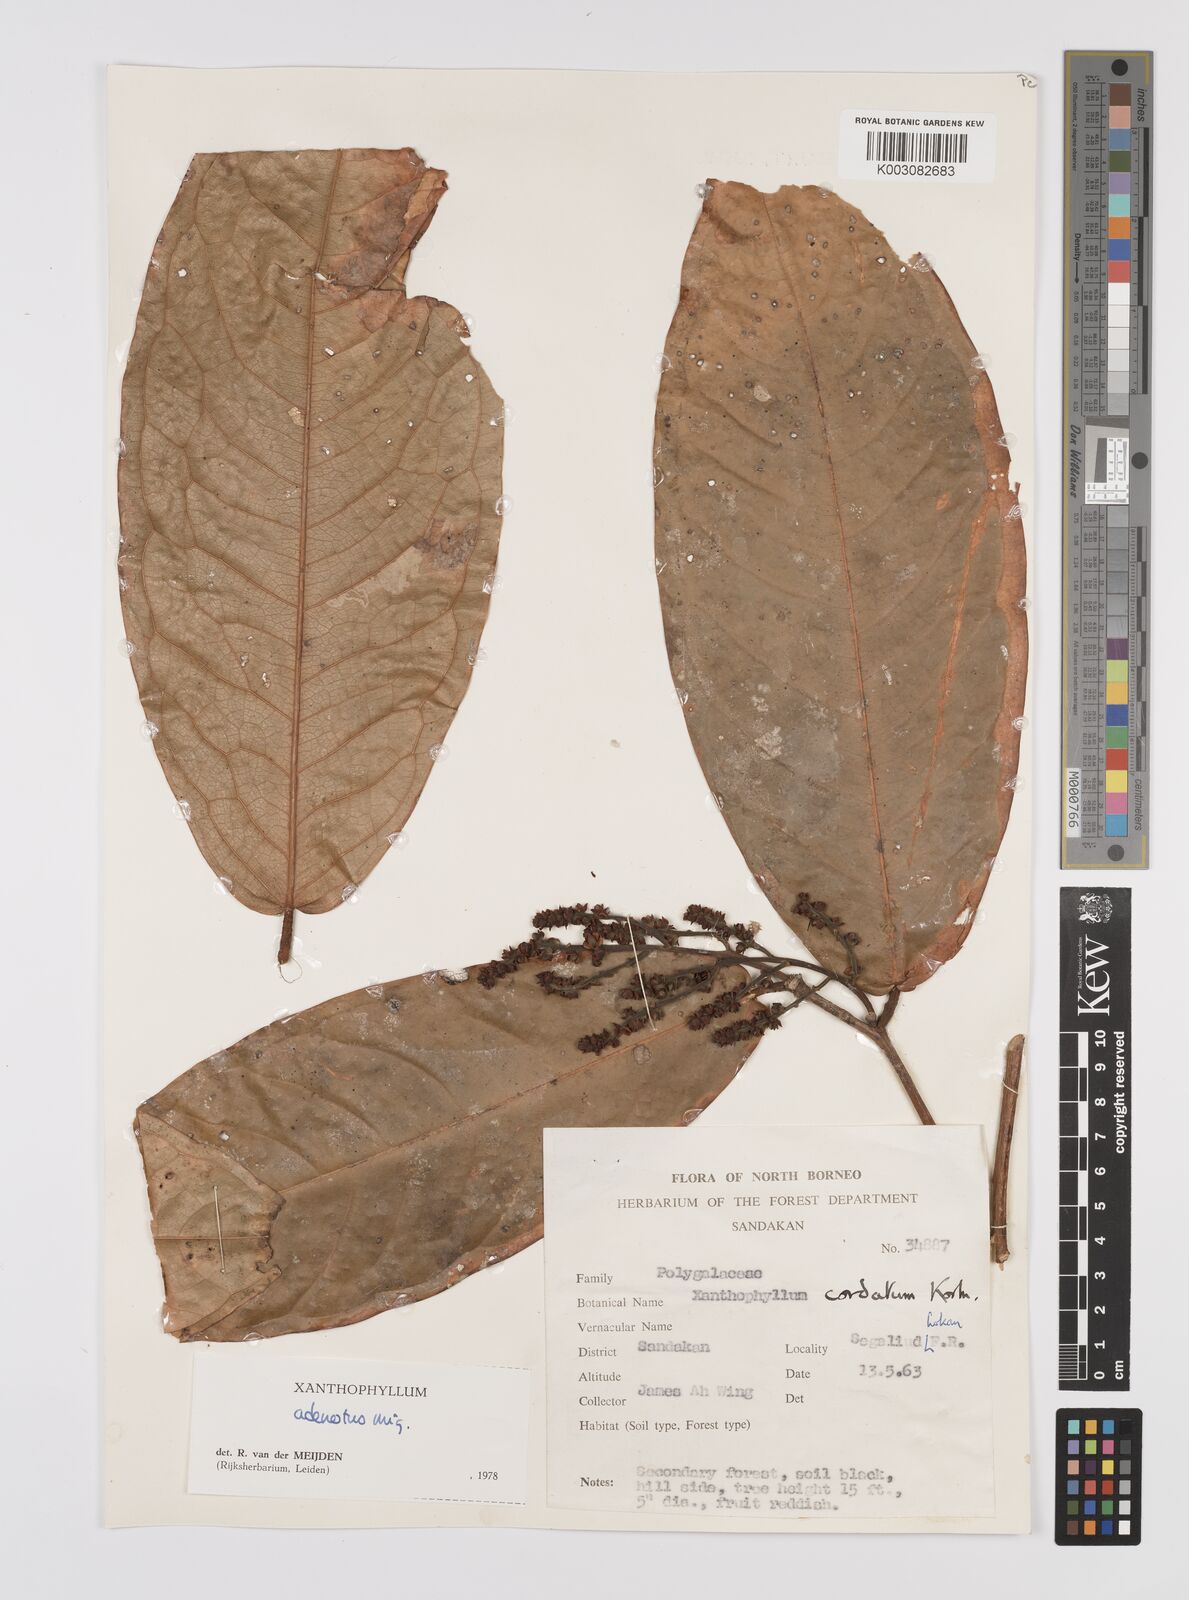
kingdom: Plantae
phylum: Tracheophyta
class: Magnoliopsida
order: Fabales
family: Polygalaceae
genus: Xanthophyllum
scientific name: Xanthophyllum adenotus
